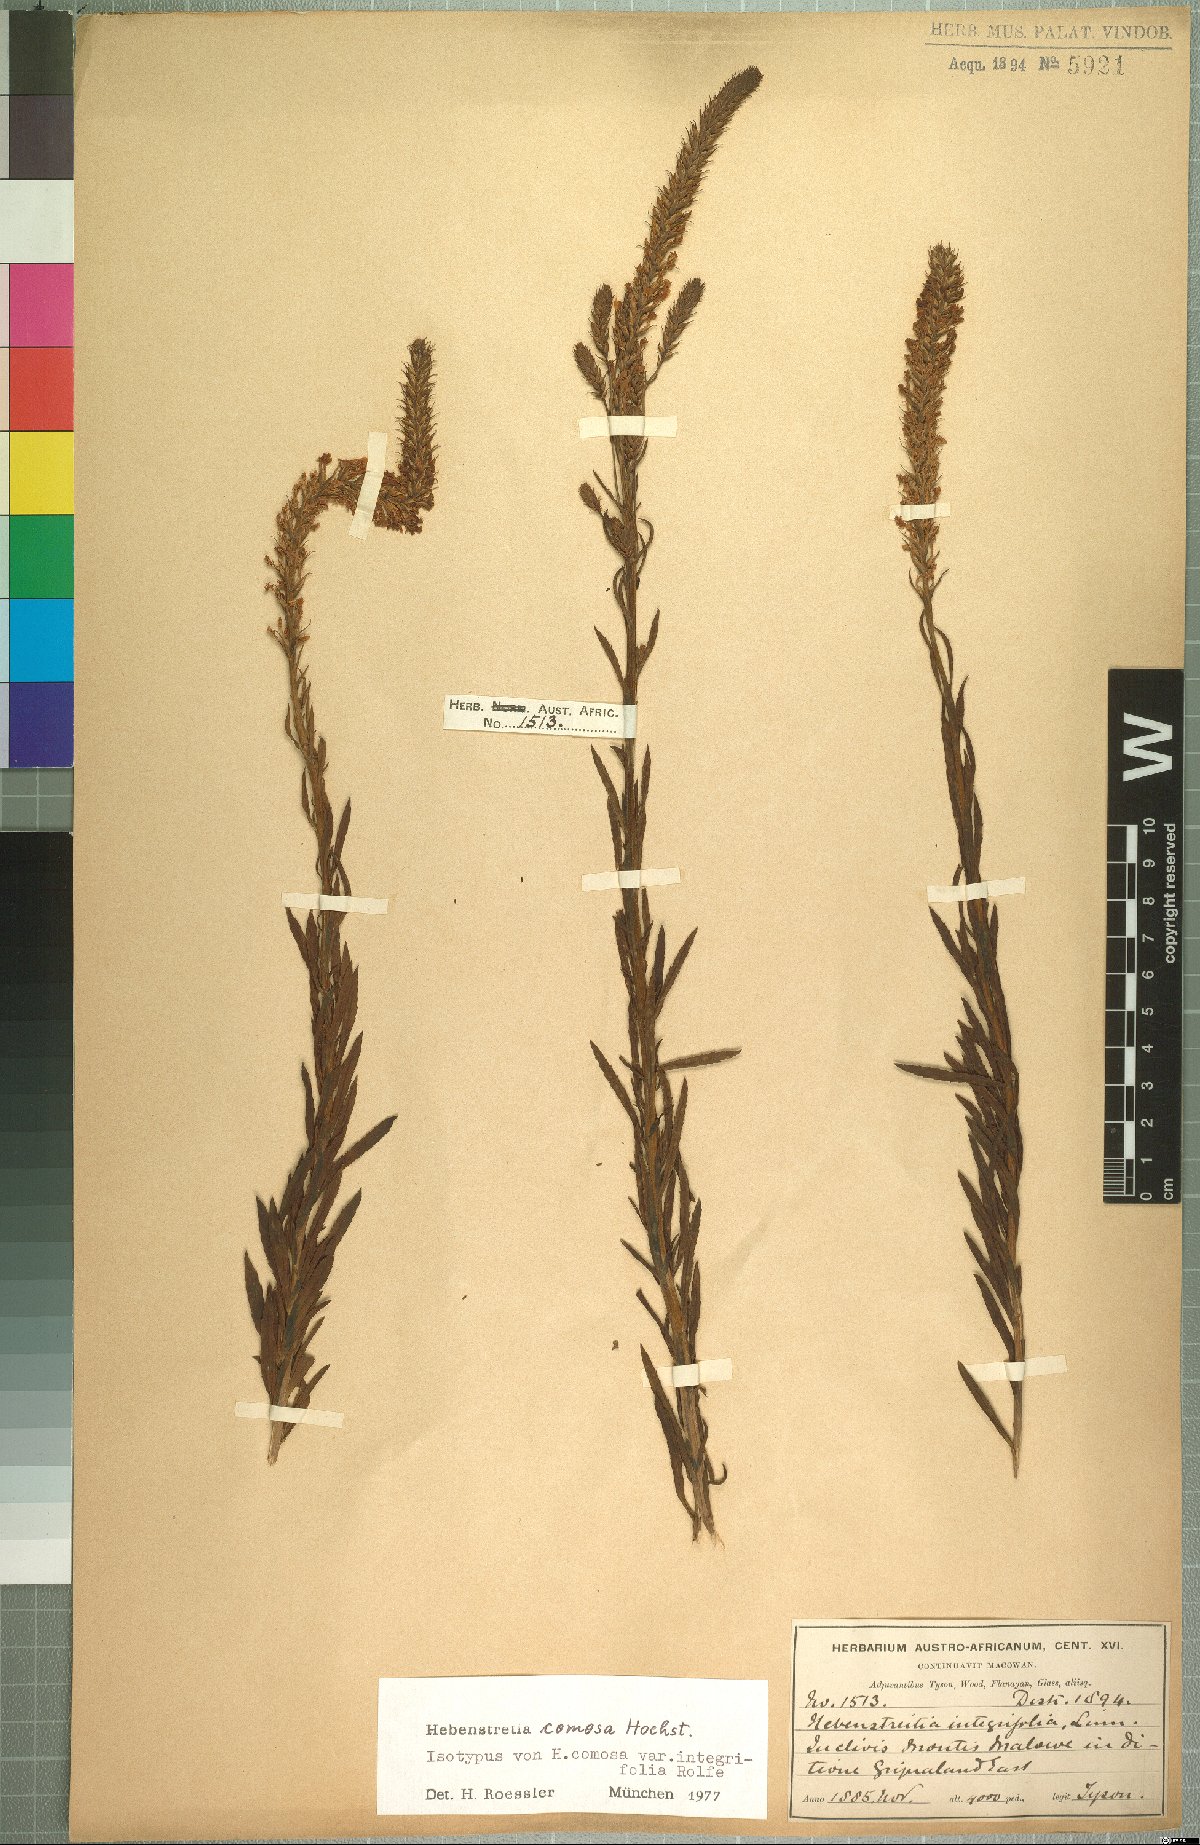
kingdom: Plantae
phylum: Tracheophyta
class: Magnoliopsida
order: Lamiales
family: Scrophulariaceae
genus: Hebenstretia
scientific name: Hebenstretia comosa
